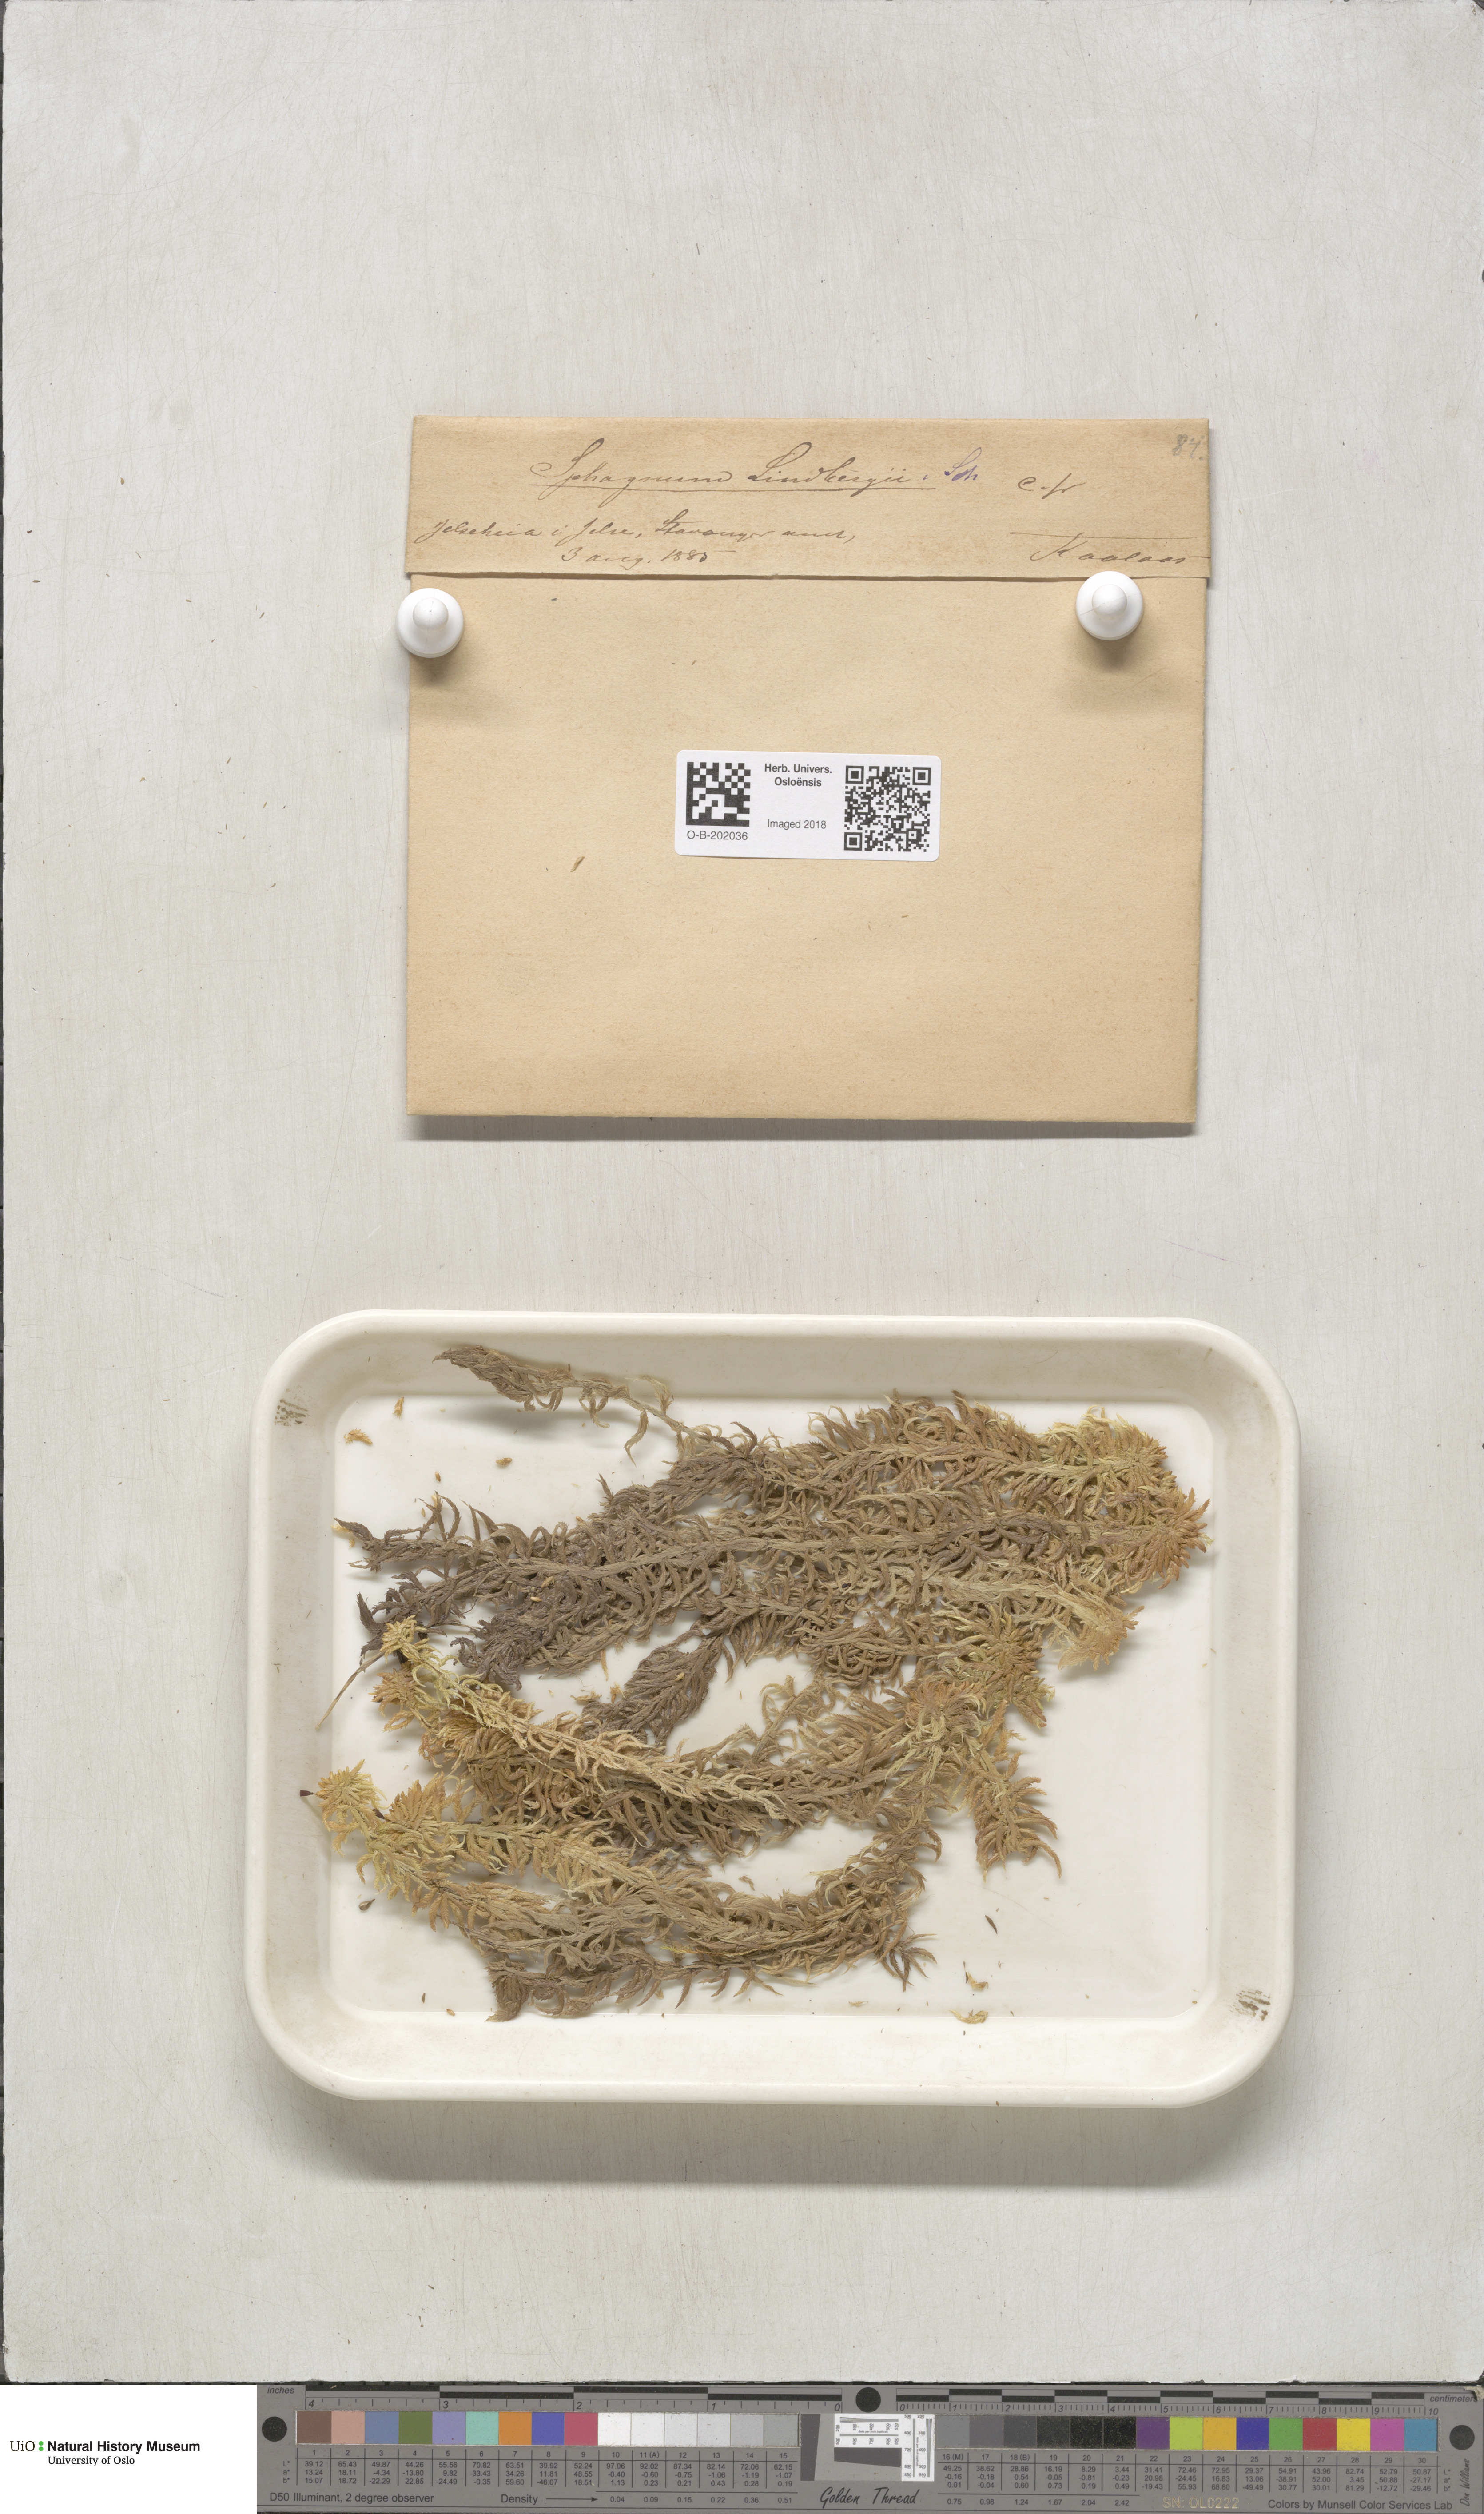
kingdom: Plantae
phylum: Bryophyta
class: Sphagnopsida
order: Sphagnales
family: Sphagnaceae
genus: Sphagnum
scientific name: Sphagnum lindbergii
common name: Lindberg's peat moss
